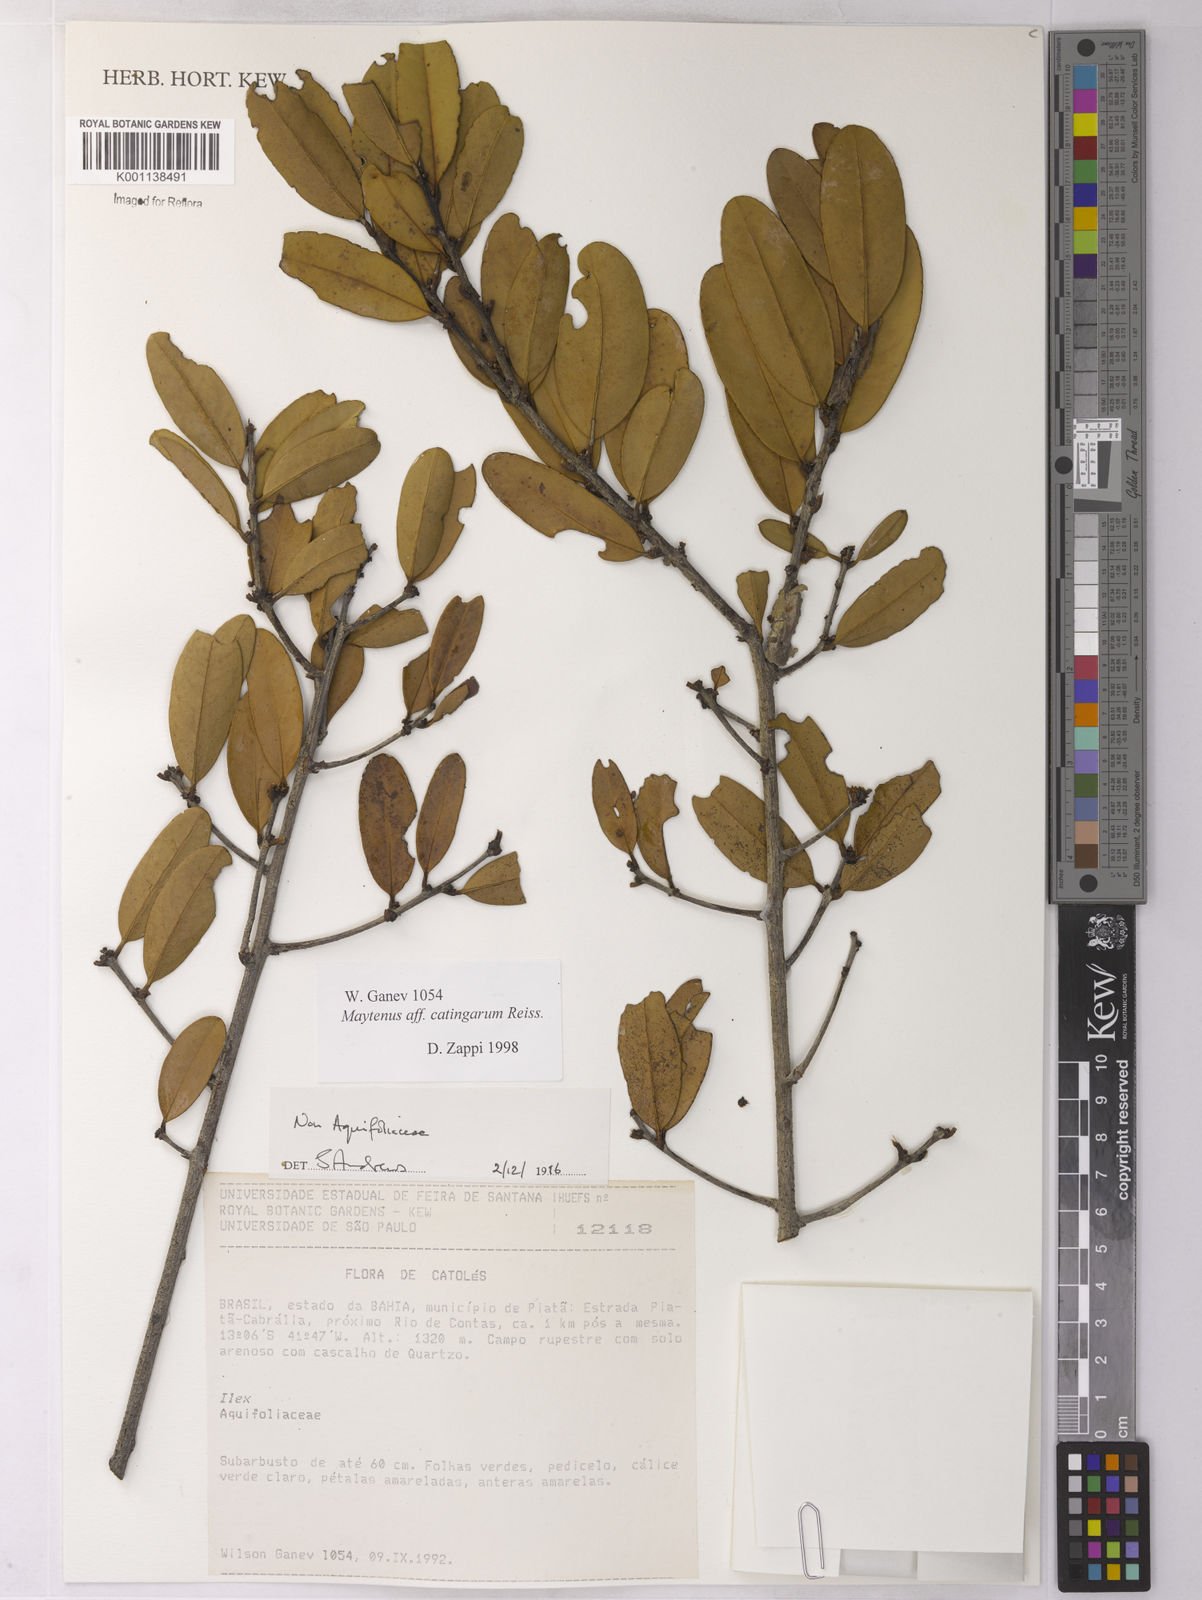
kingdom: Plantae
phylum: Tracheophyta
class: Magnoliopsida
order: Celastrales
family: Celastraceae
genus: Monteverdia
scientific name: Monteverdia catingarum
